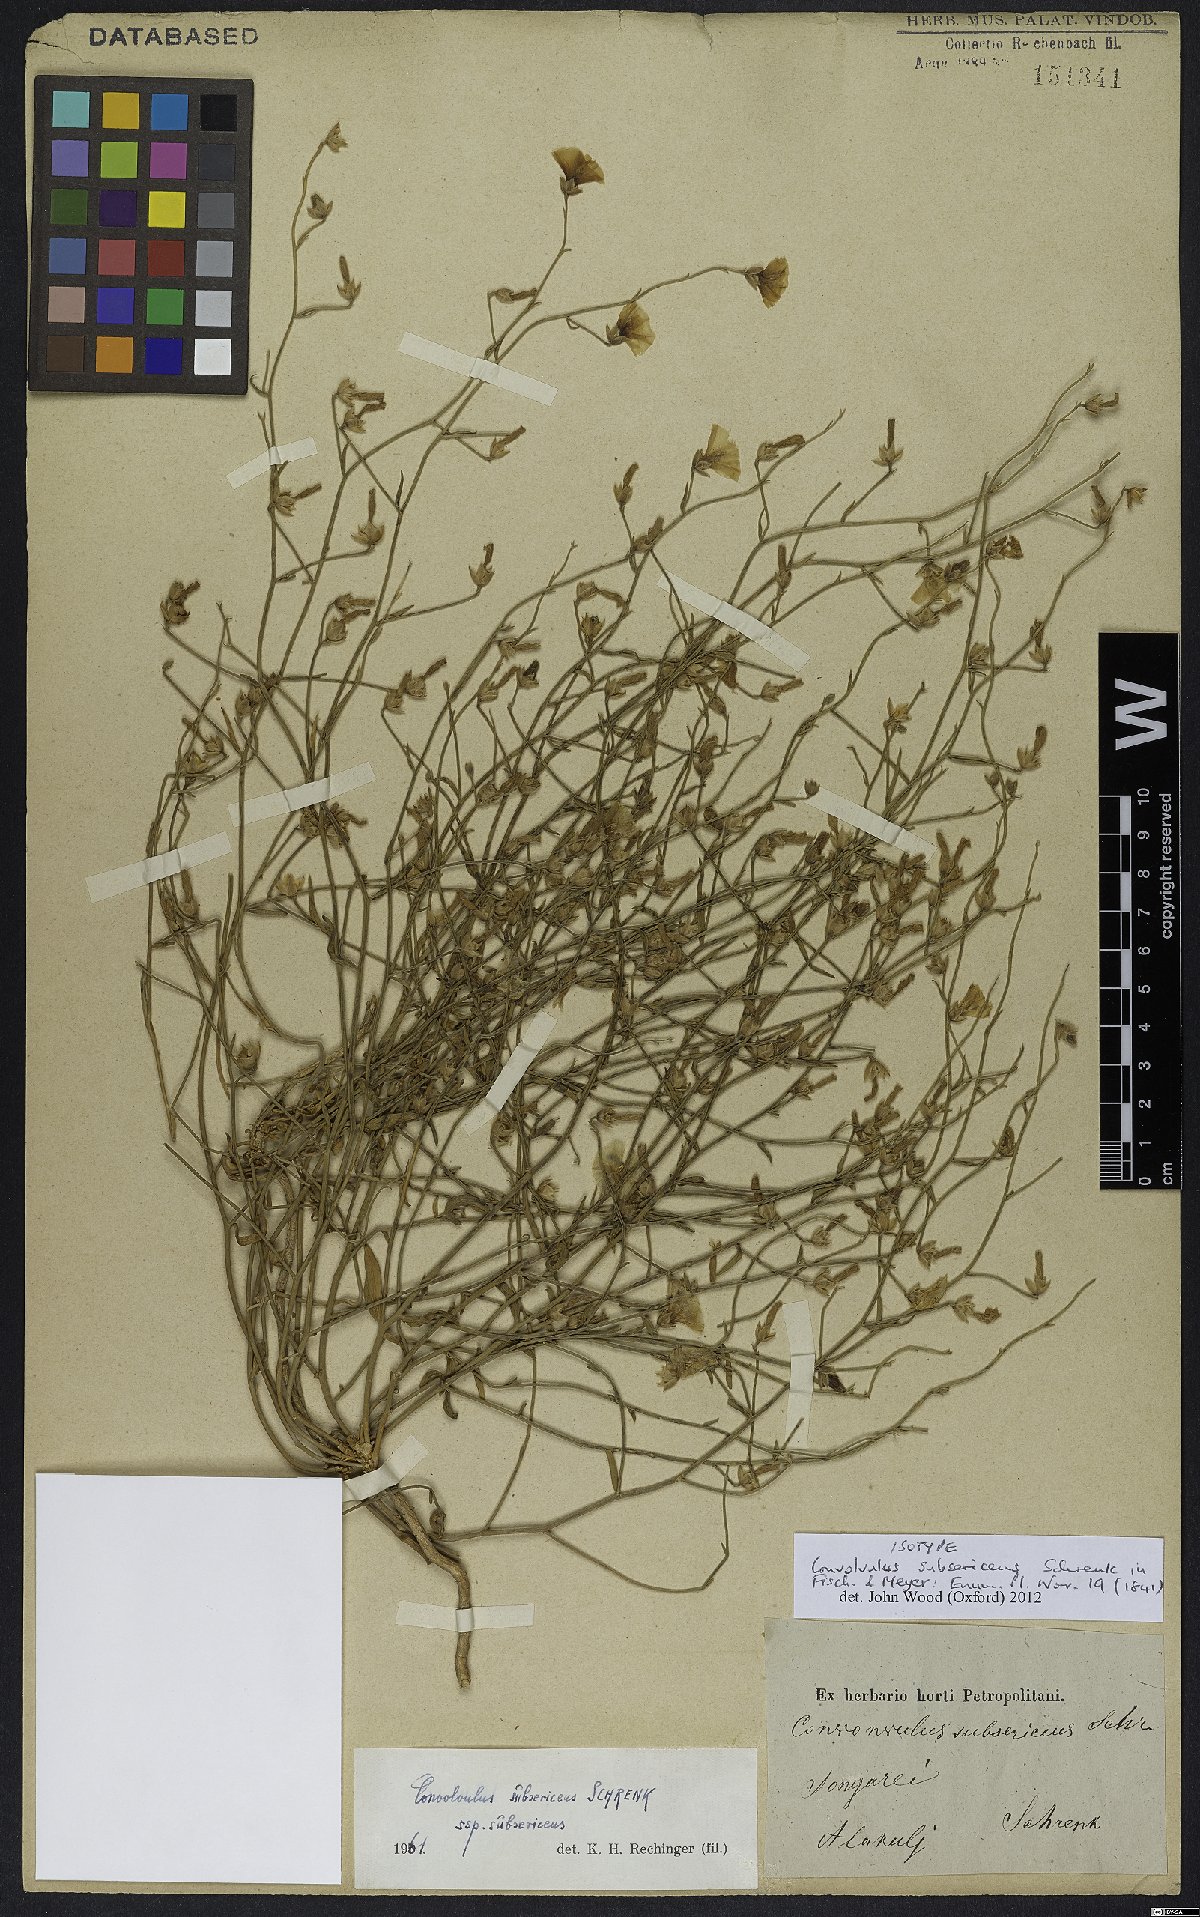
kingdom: Plantae
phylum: Tracheophyta
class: Magnoliopsida
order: Solanales
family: Convolvulaceae
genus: Convolvulus
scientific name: Convolvulus subsericeus
